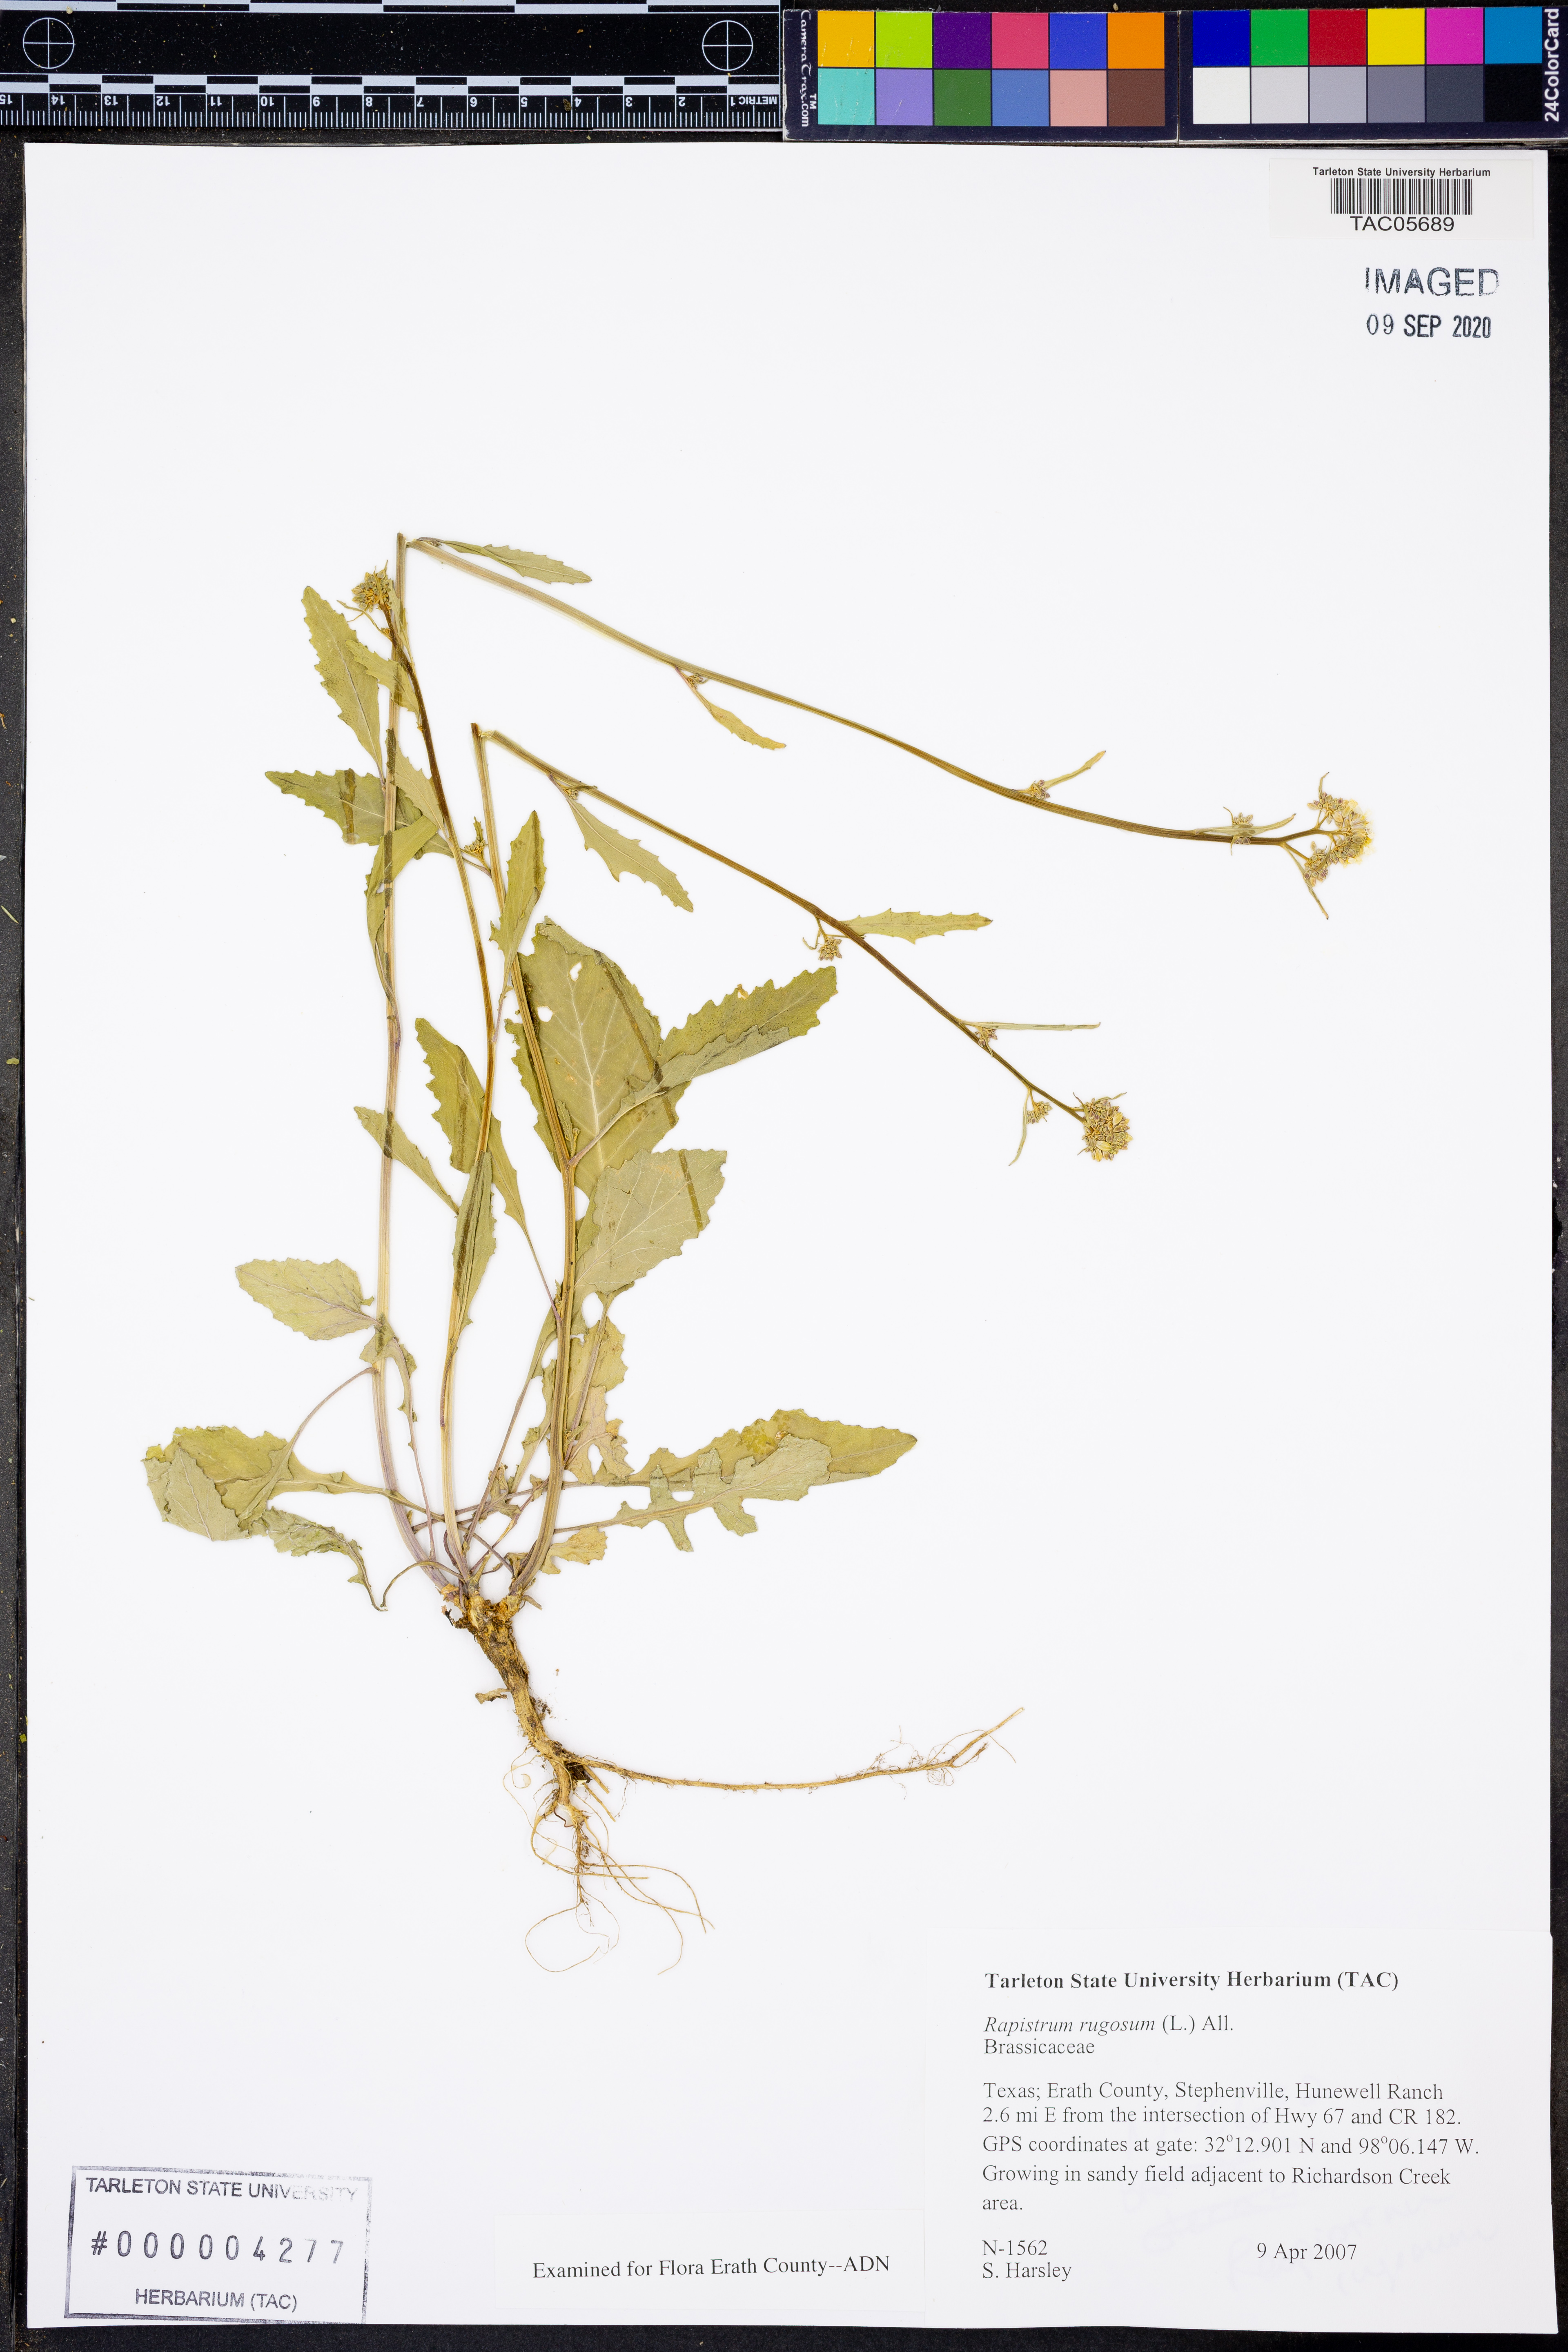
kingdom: Plantae
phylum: Tracheophyta
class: Magnoliopsida
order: Brassicales
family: Brassicaceae
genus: Rapistrum
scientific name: Rapistrum rugosum
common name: Annual bastardcabbage
